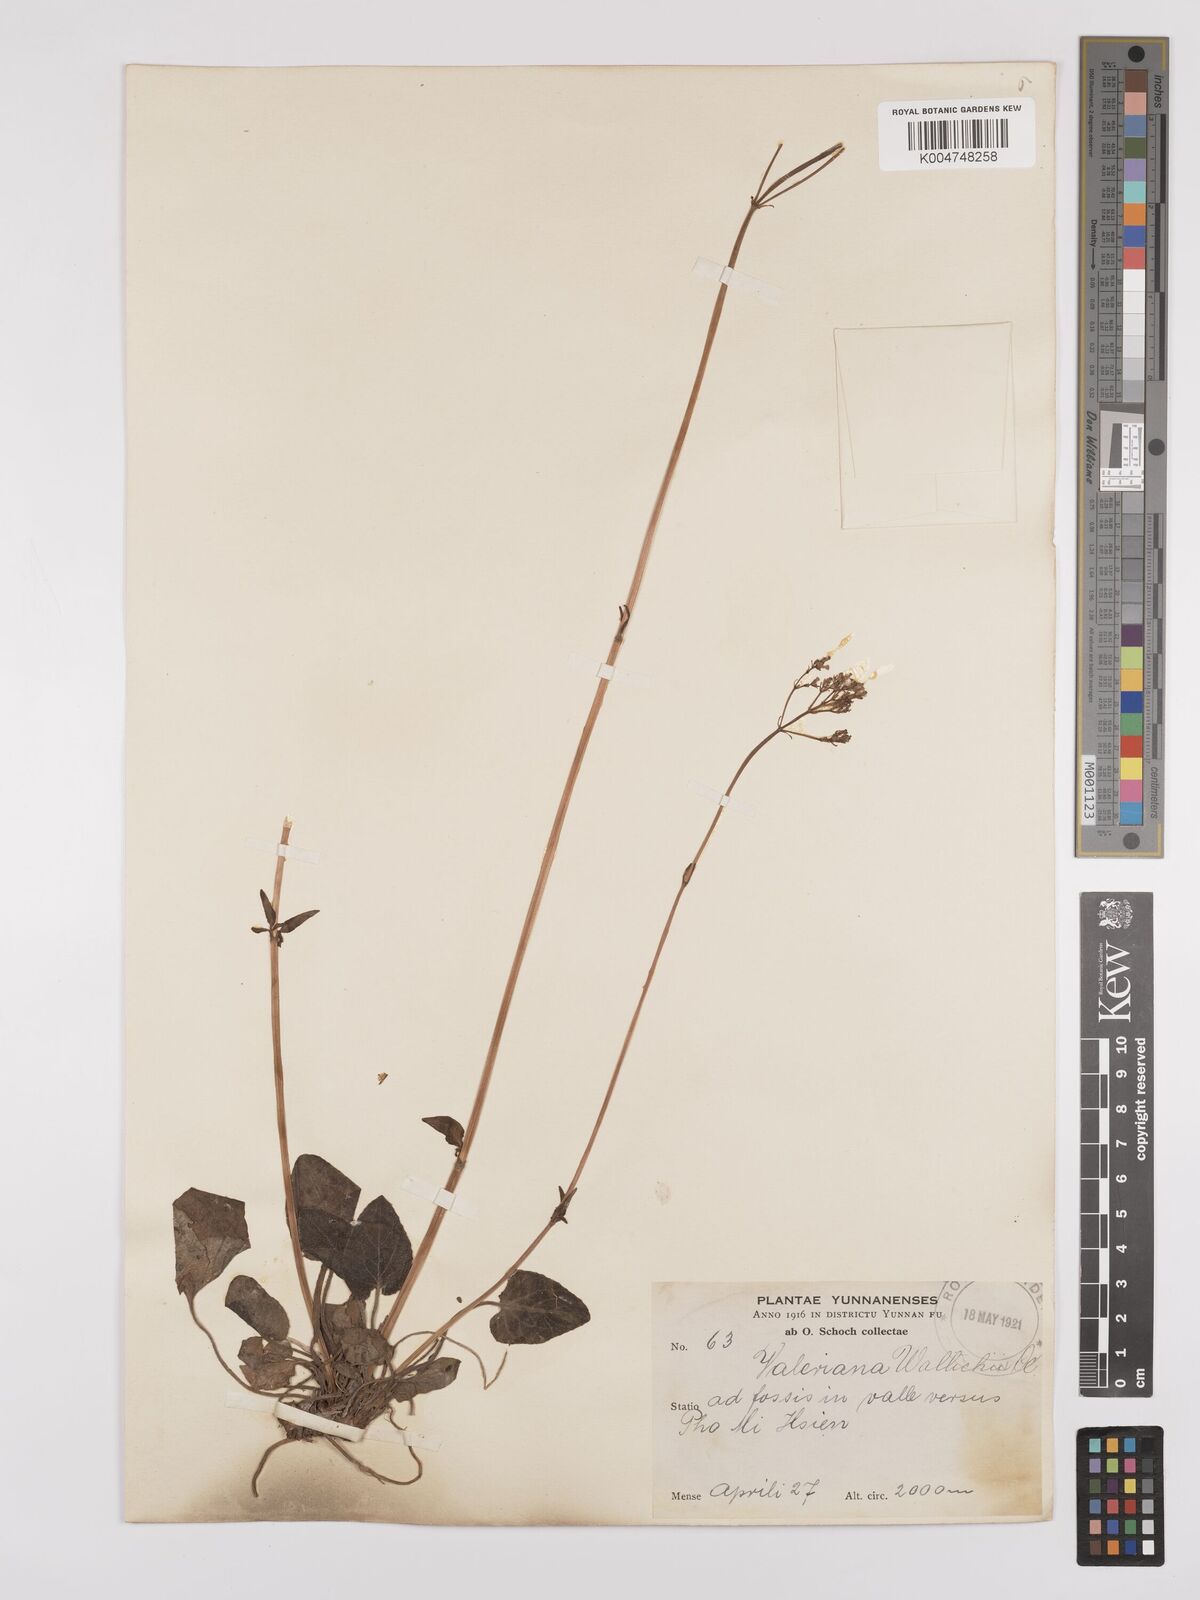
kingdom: Plantae
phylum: Tracheophyta
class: Magnoliopsida
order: Dipsacales
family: Caprifoliaceae
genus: Valeriana
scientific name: Valeriana
